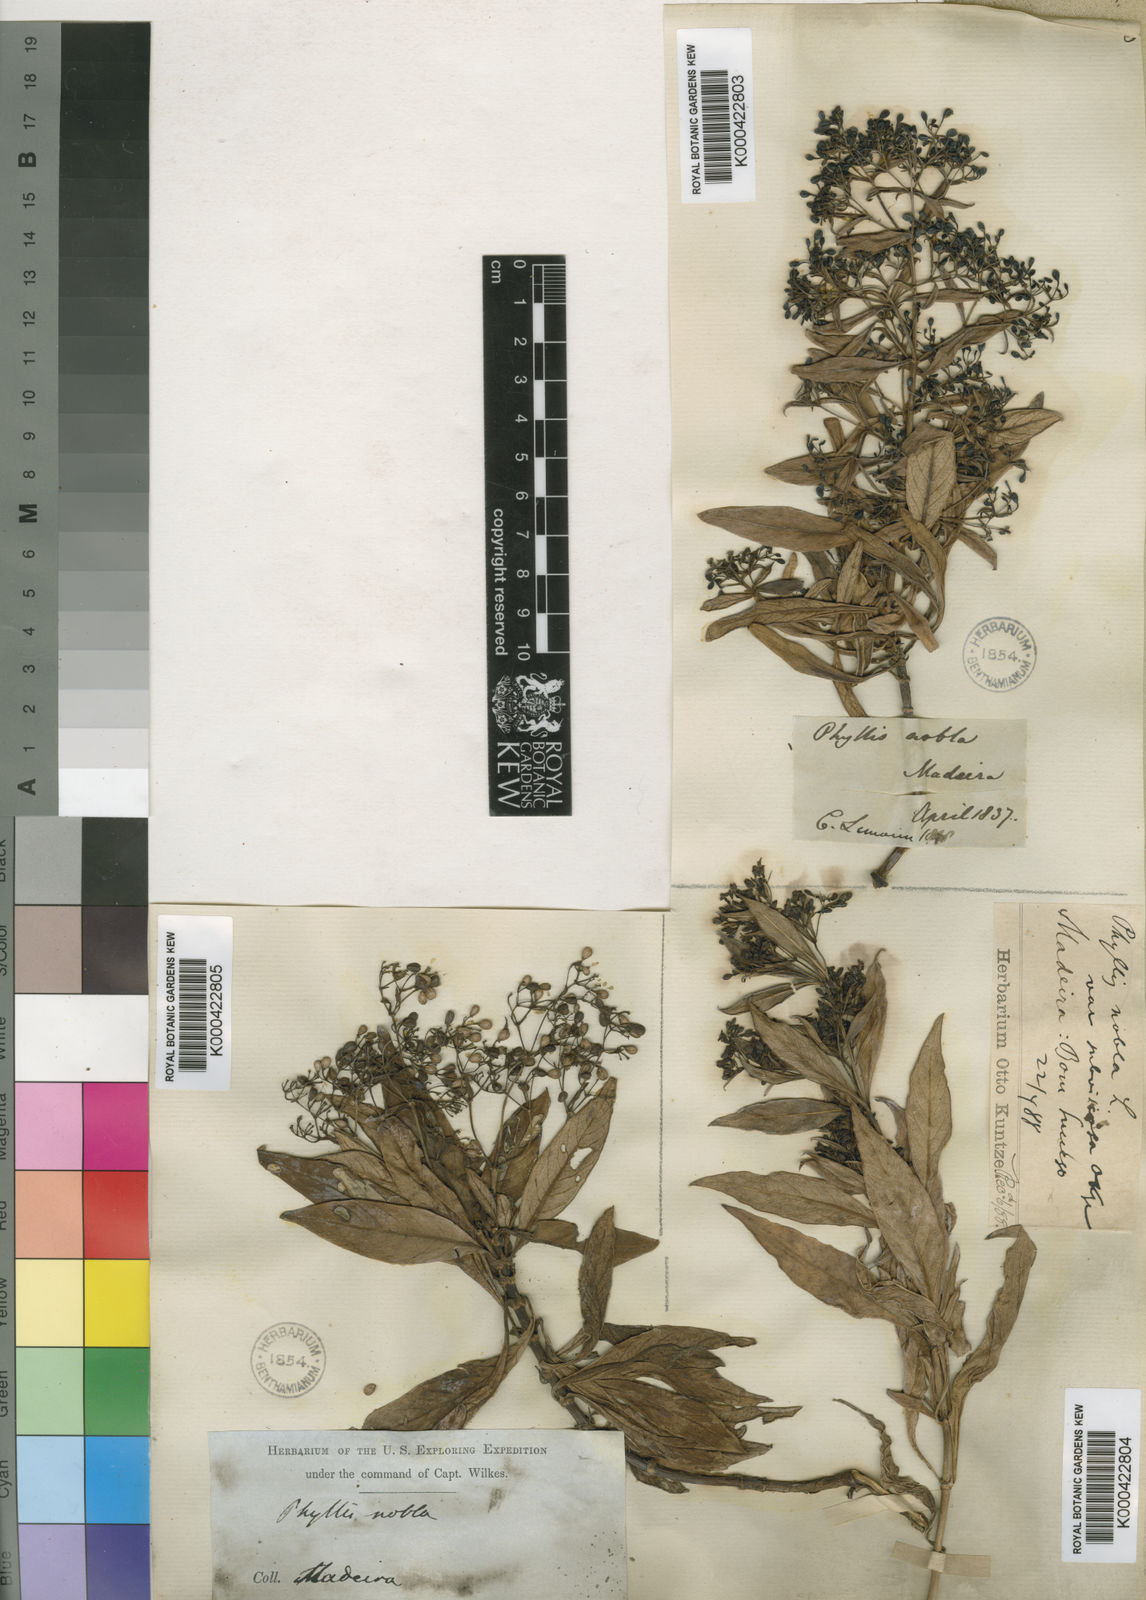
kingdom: Plantae
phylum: Tracheophyta
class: Magnoliopsida
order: Gentianales
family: Rubiaceae
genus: Phyllis
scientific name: Phyllis nobla
